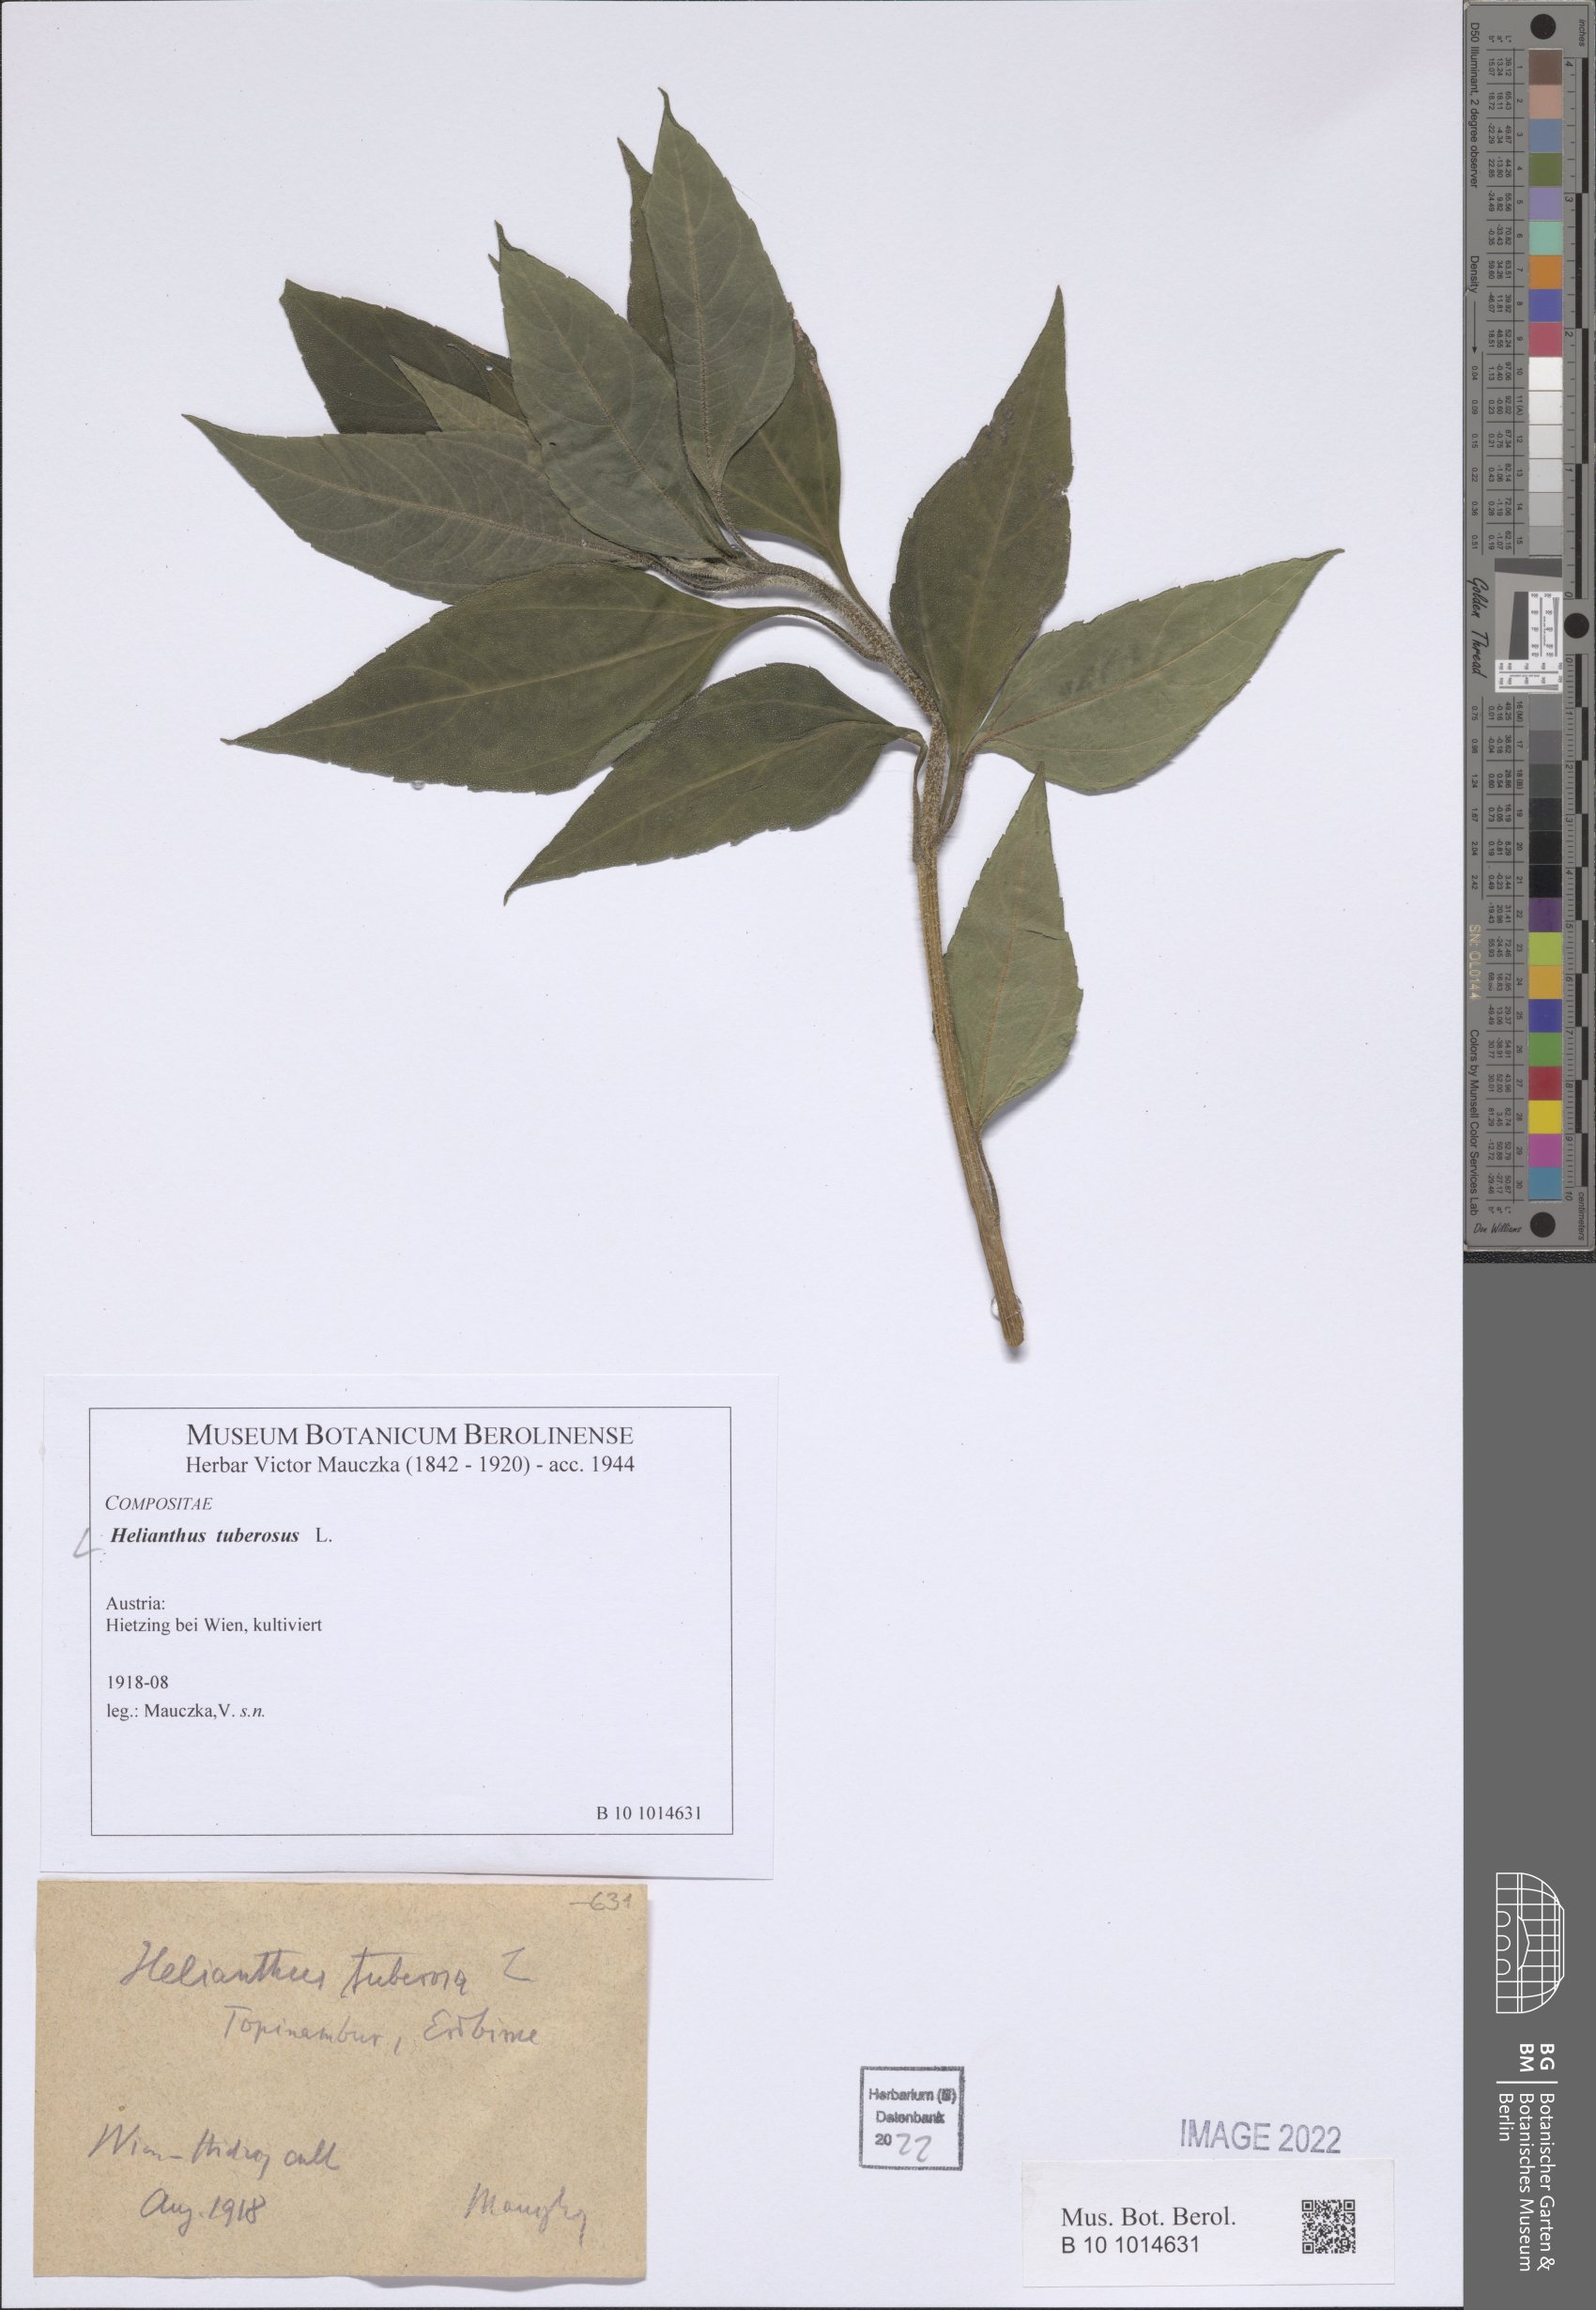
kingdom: Plantae
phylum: Tracheophyta
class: Magnoliopsida
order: Asterales
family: Asteraceae
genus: Helianthus
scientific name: Helianthus tuberosus
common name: Jerusalem artichoke
